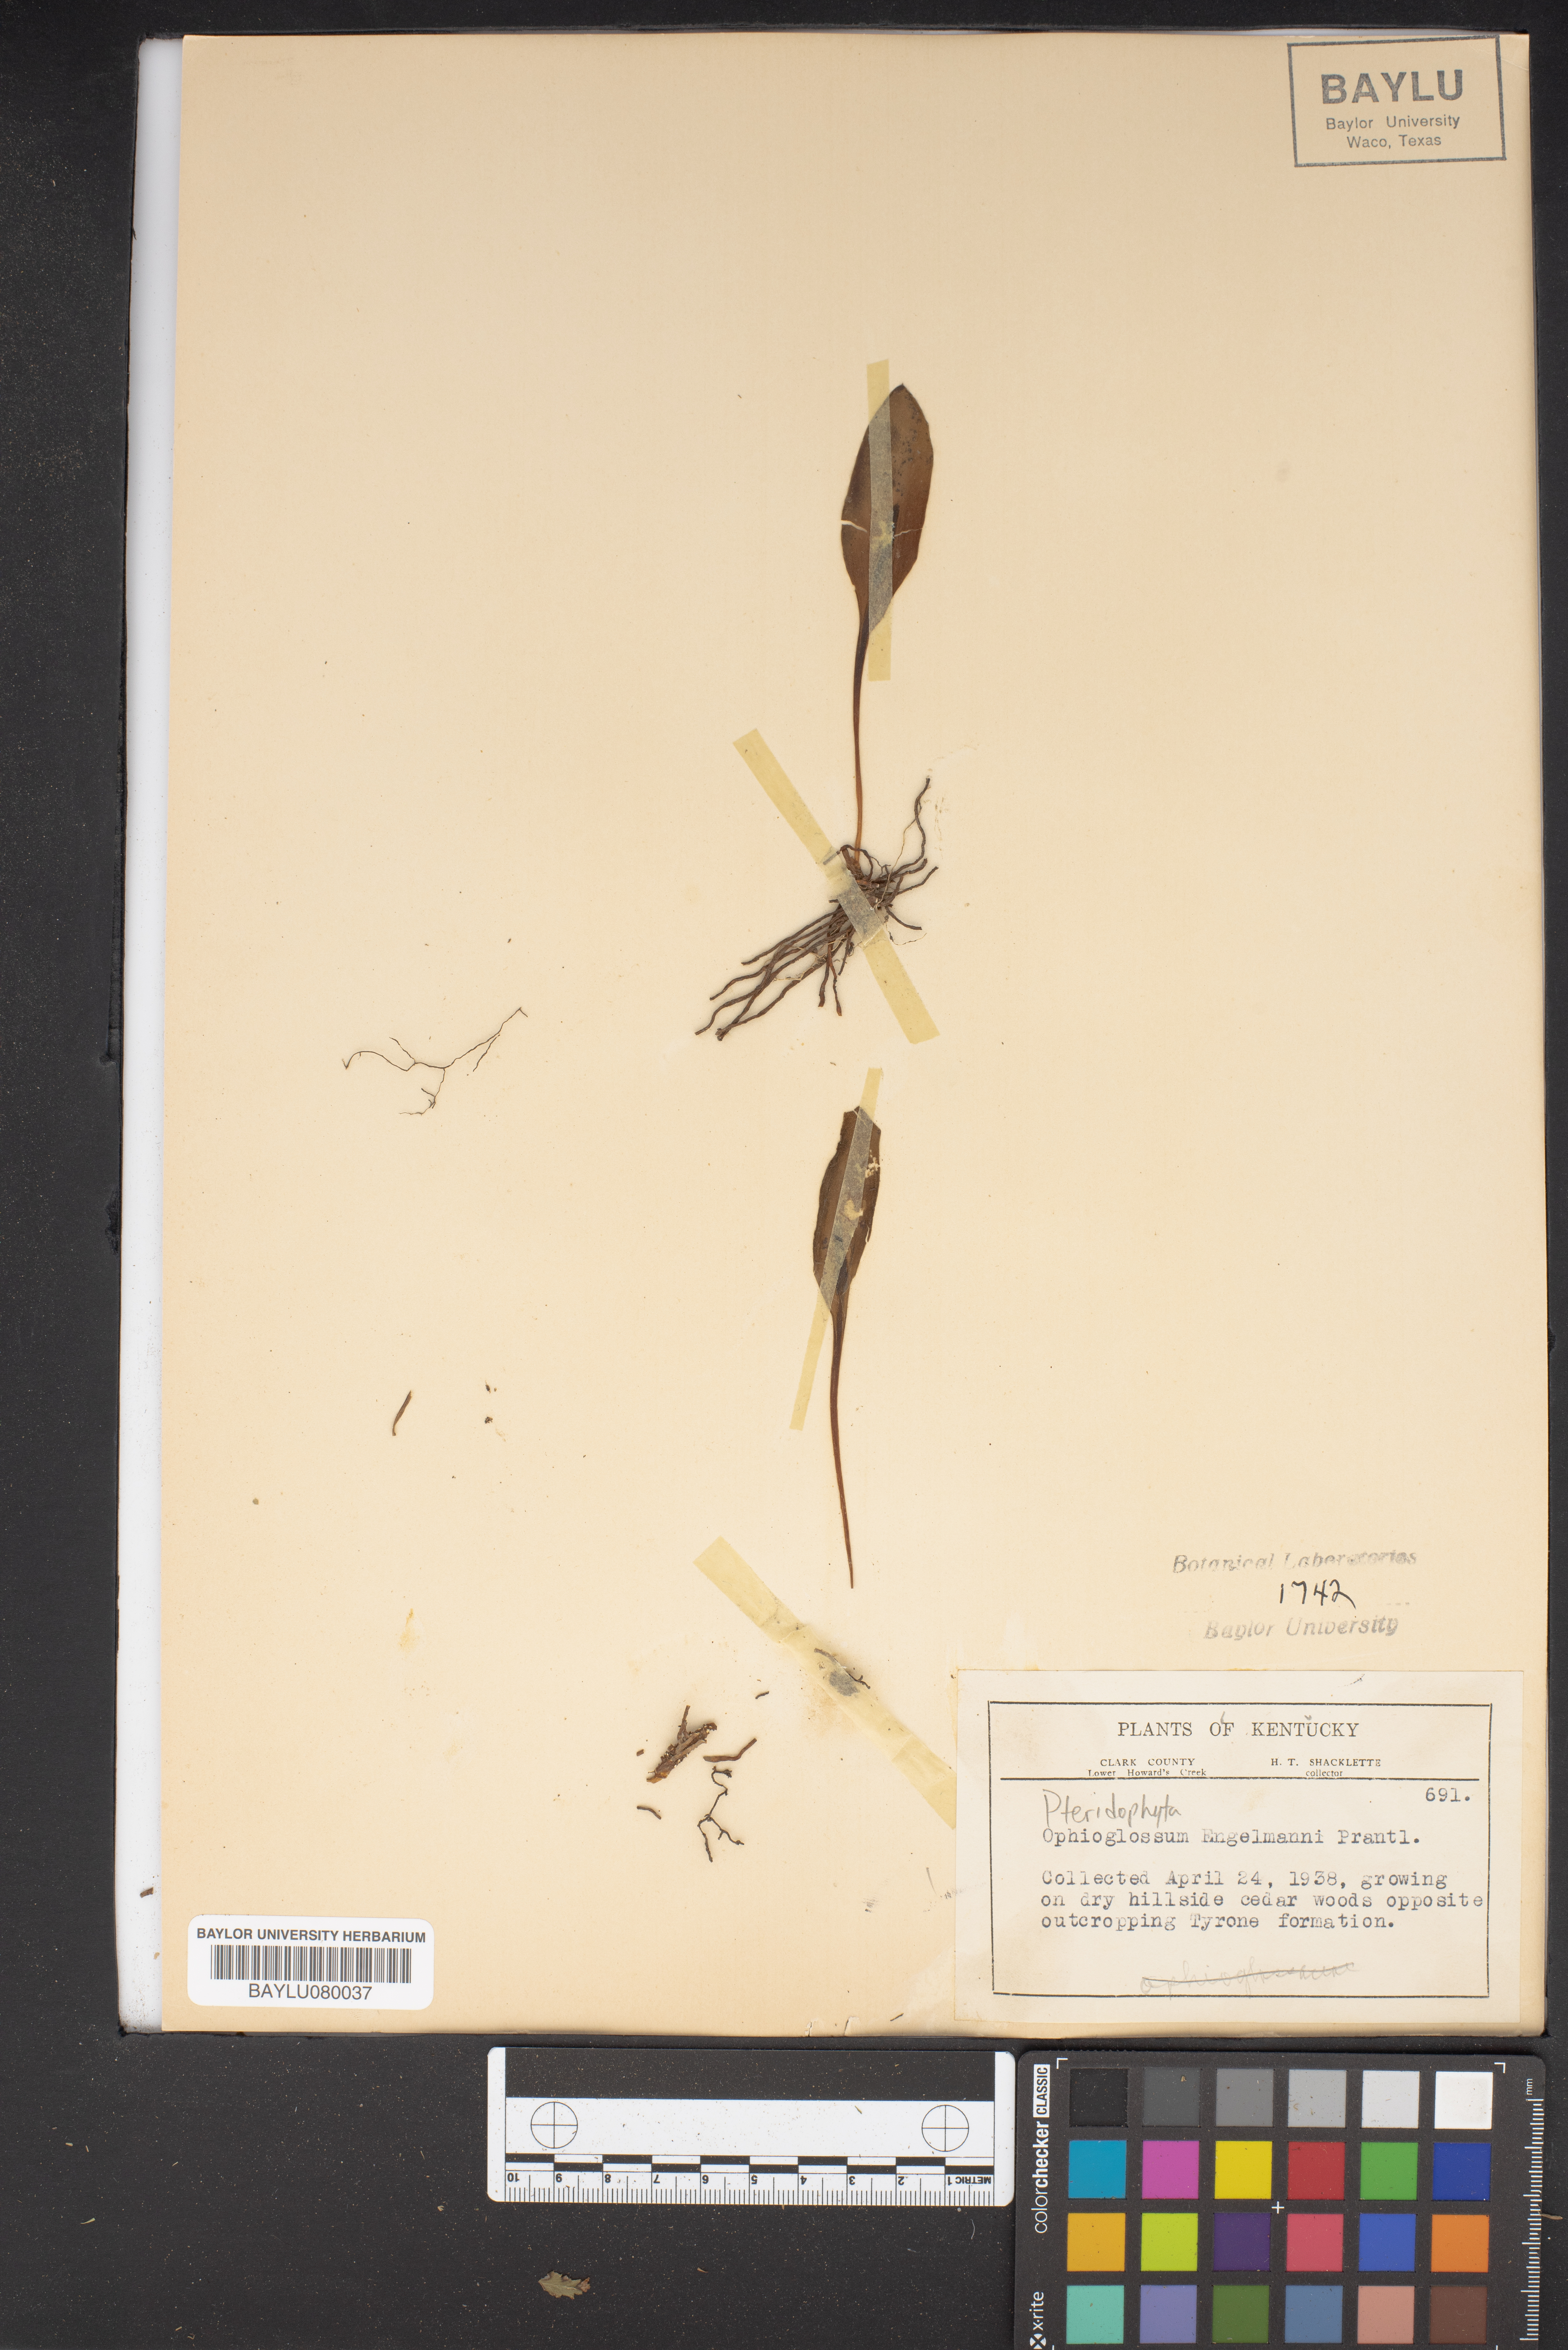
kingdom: Plantae
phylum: Tracheophyta
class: Polypodiopsida
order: Ophioglossales
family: Ophioglossaceae
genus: Ophioglossum
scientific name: Ophioglossum engelmannii
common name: Limestone adder's-tongue
